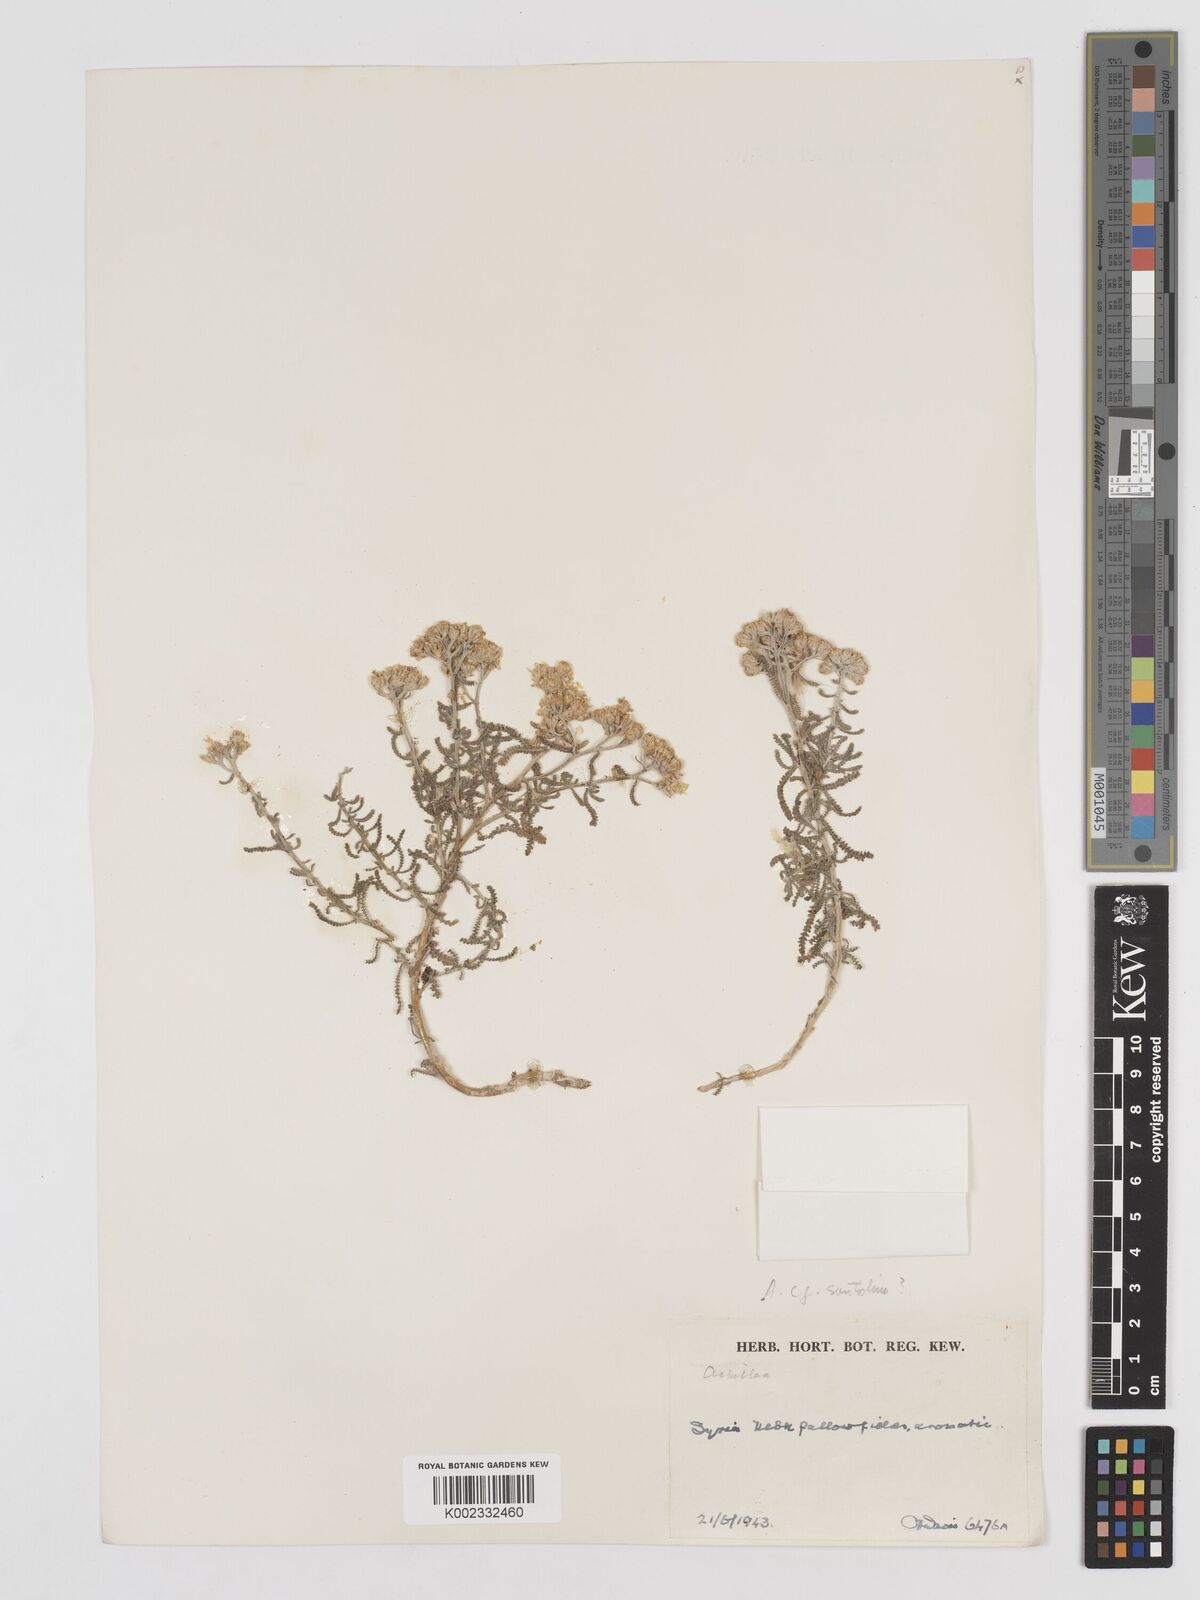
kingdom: Plantae
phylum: Tracheophyta
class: Magnoliopsida
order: Asterales
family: Asteraceae
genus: Achillea
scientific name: Achillea tenuifolia
